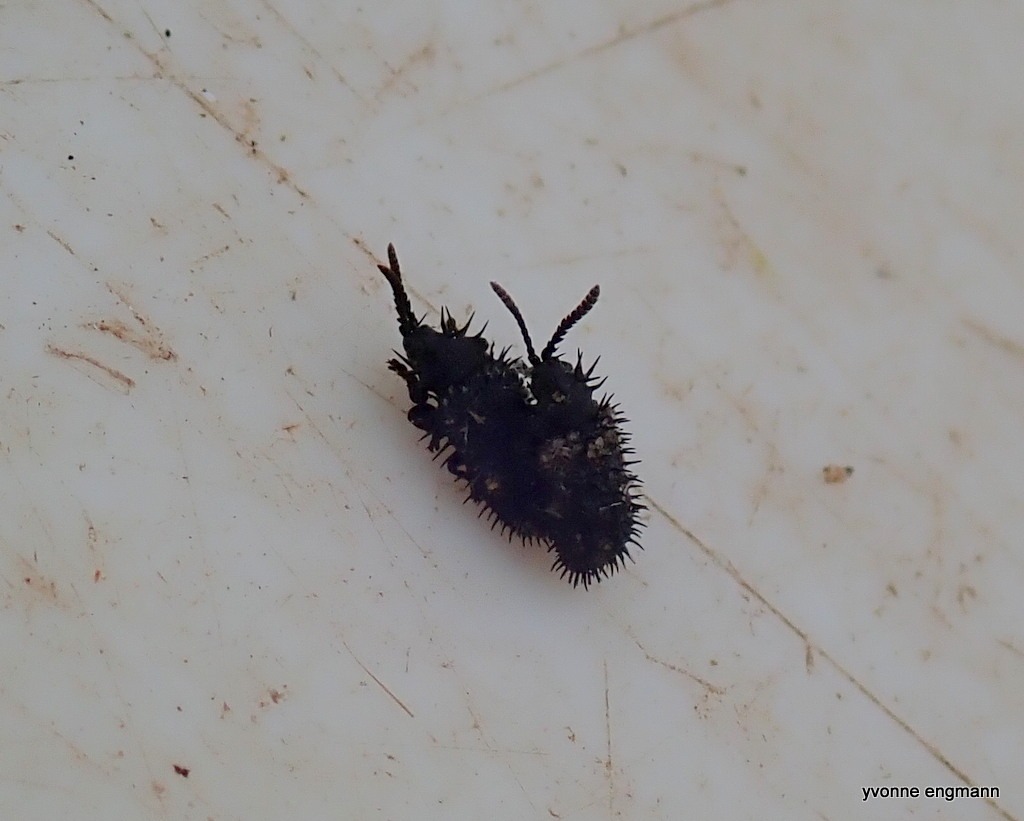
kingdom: Animalia
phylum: Arthropoda
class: Insecta
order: Coleoptera
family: Chrysomelidae
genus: Hispa
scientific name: Hispa atra
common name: Pindsvinebille
